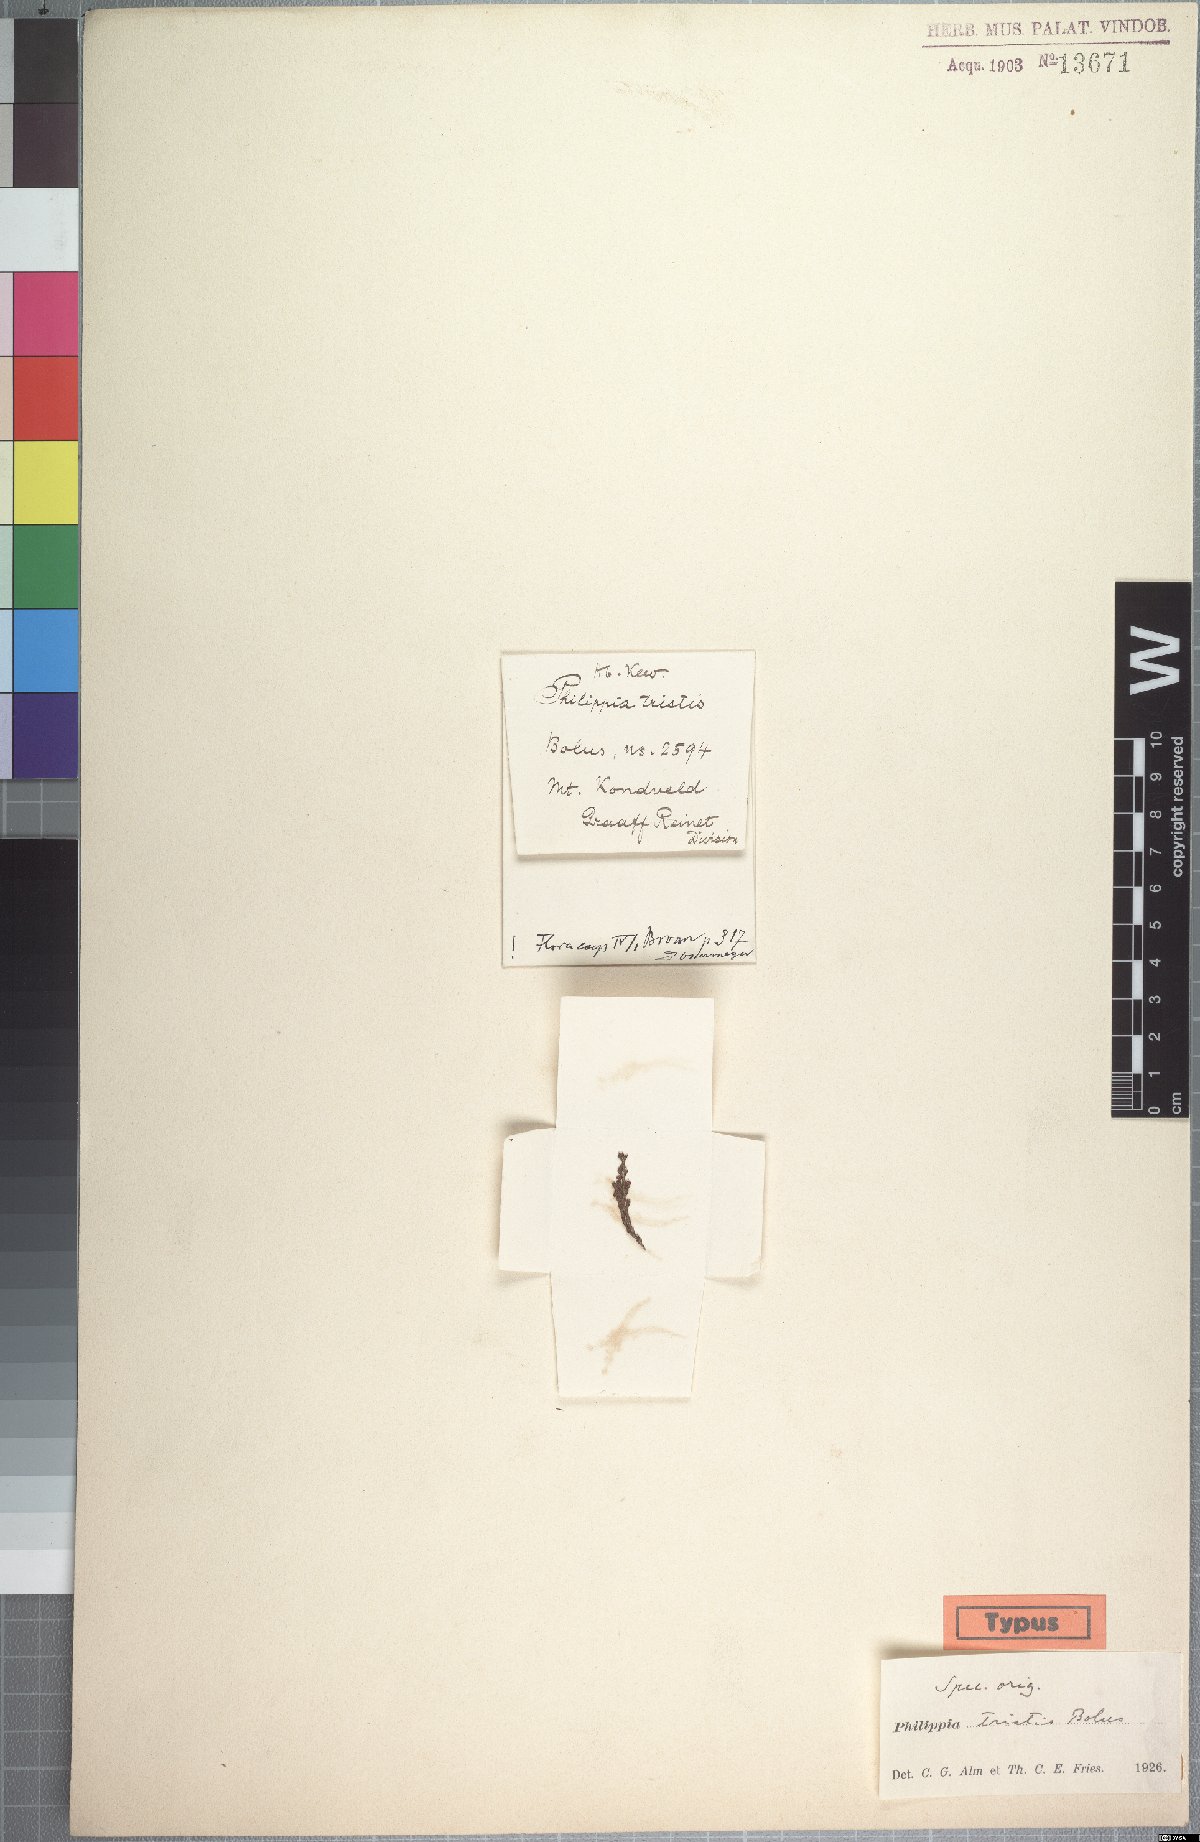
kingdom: Plantae
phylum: Tracheophyta
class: Magnoliopsida
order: Ericales
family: Ericaceae
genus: Erica
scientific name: Erica caespitosa
